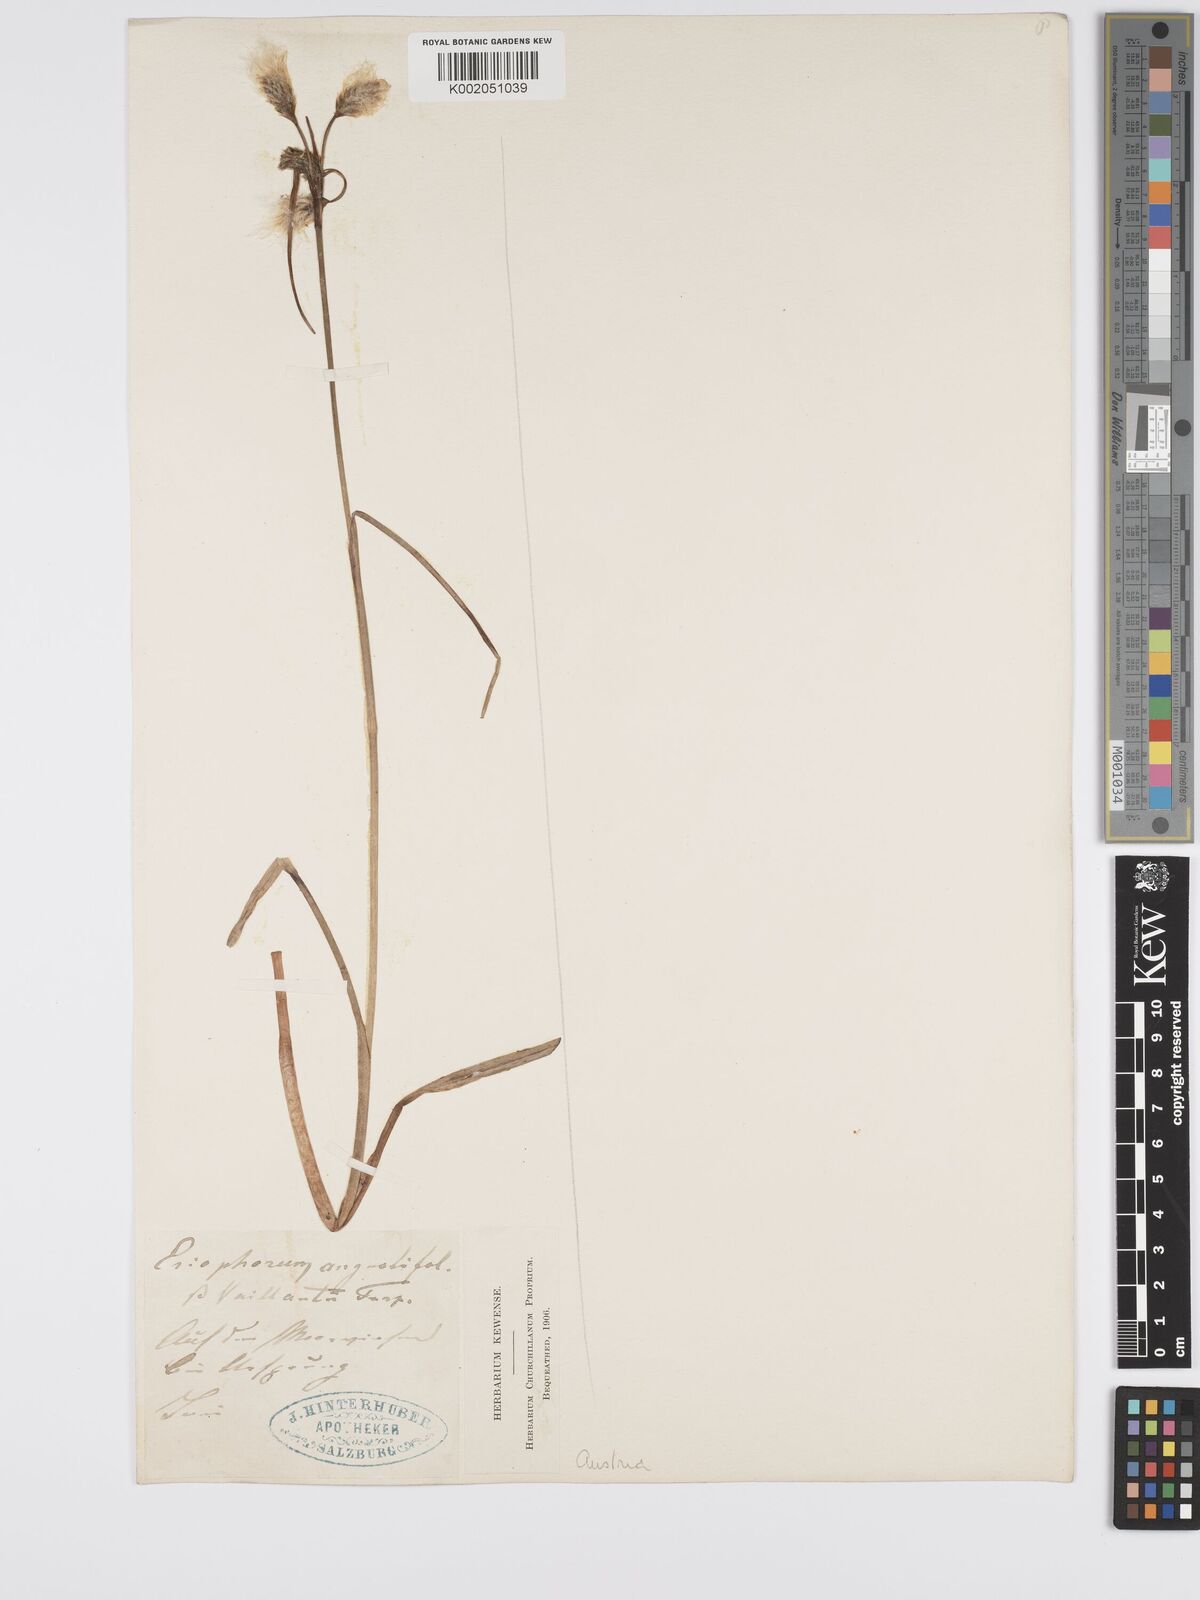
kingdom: Plantae
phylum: Tracheophyta
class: Liliopsida
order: Poales
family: Cyperaceae
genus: Eriophorum
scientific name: Eriophorum angustifolium
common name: Common cottongrass
